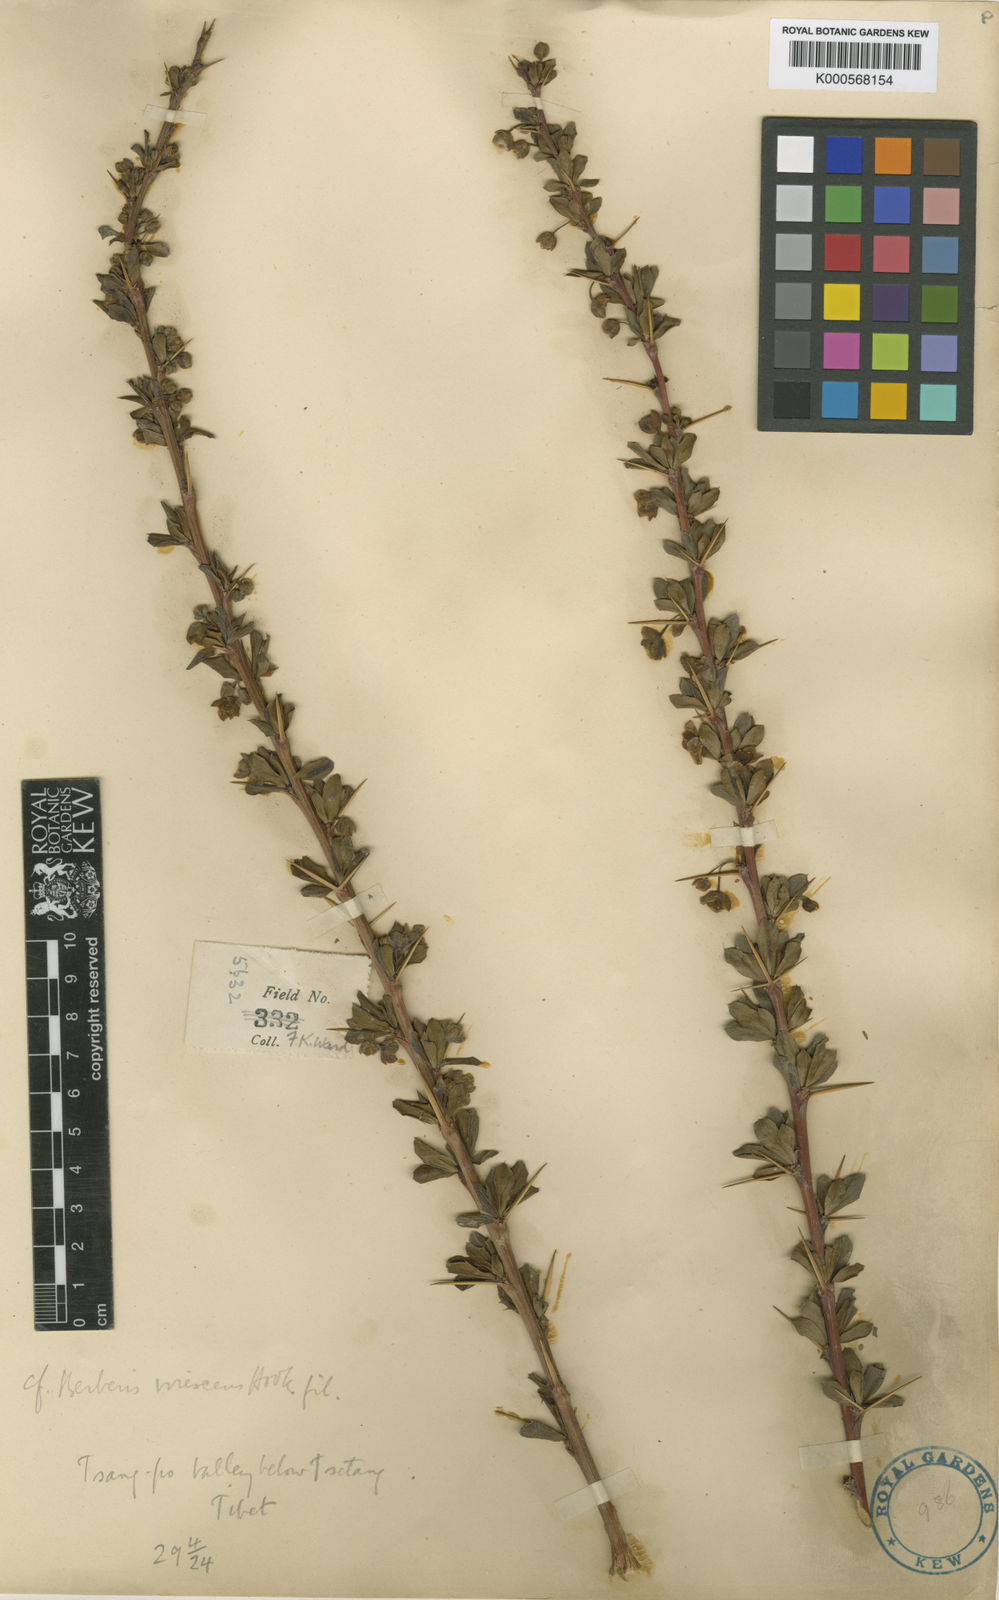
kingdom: Plantae
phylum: Tracheophyta
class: Magnoliopsida
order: Ranunculales
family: Berberidaceae
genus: Berberis
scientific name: Berberis virescens
